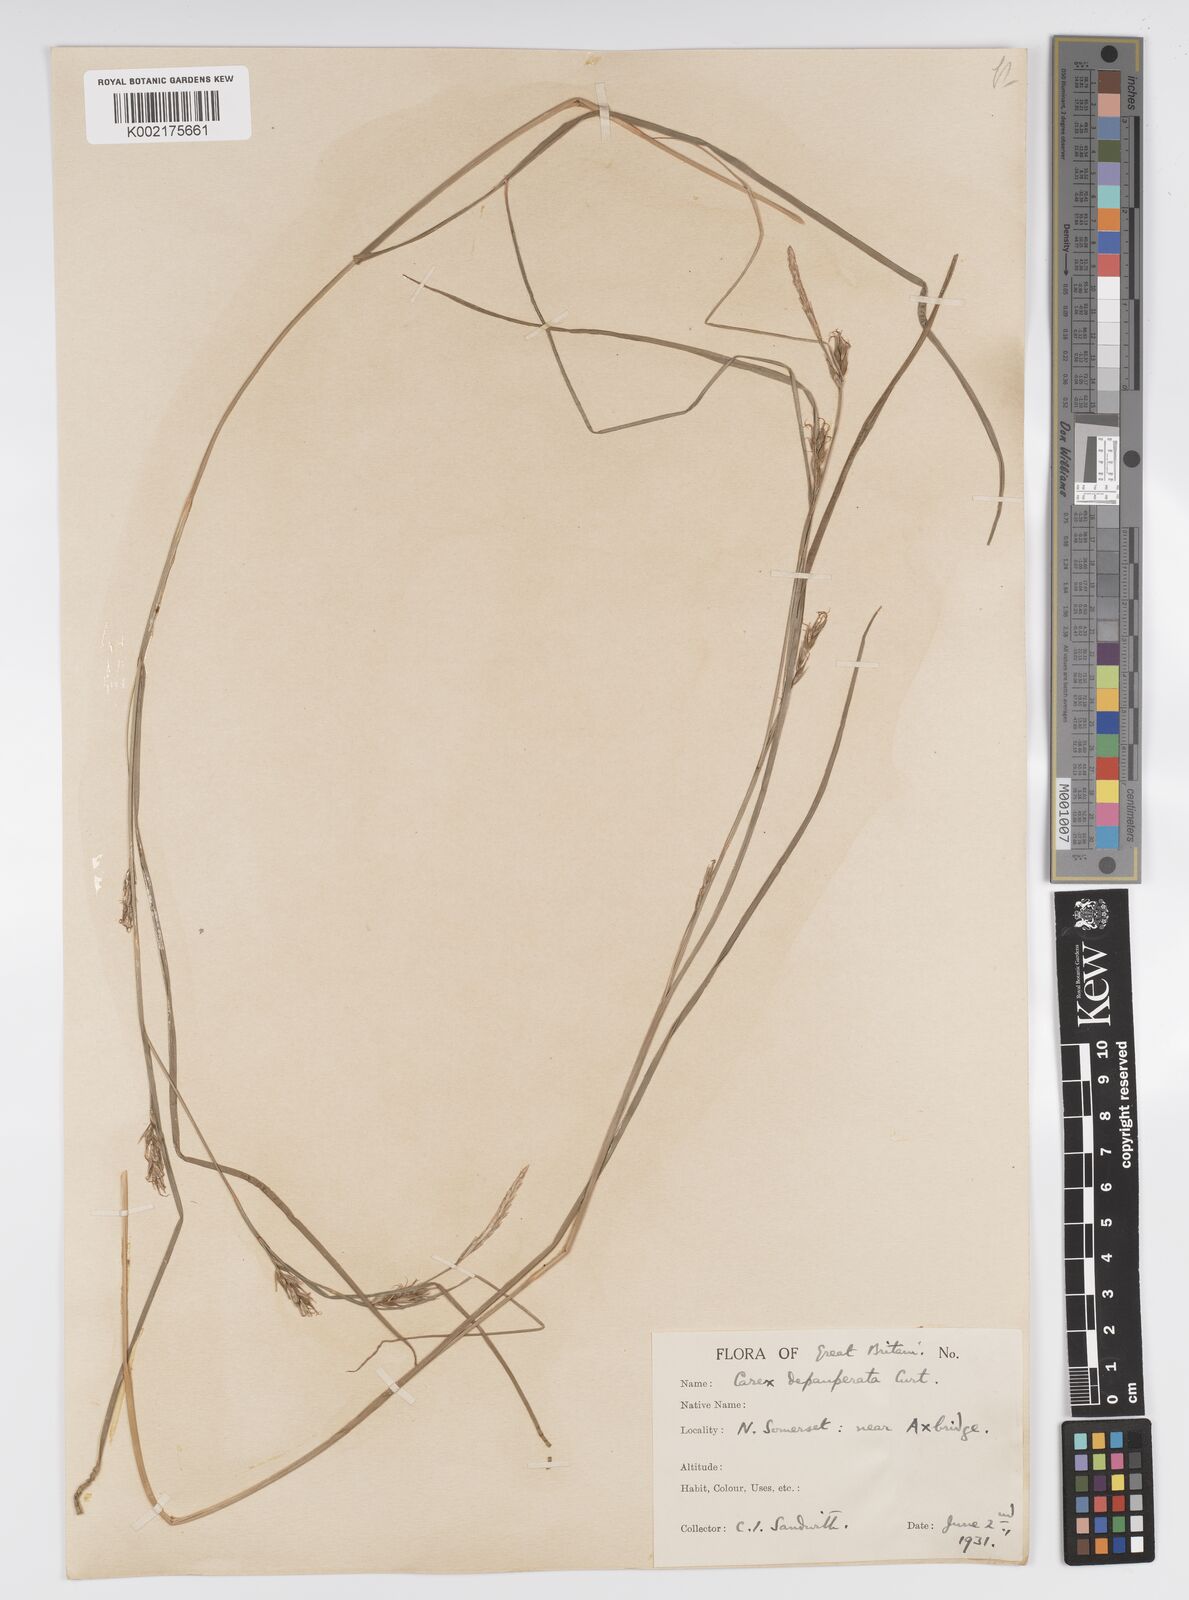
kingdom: Plantae
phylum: Tracheophyta
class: Liliopsida
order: Poales
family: Cyperaceae
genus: Carex
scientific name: Carex depauperata
